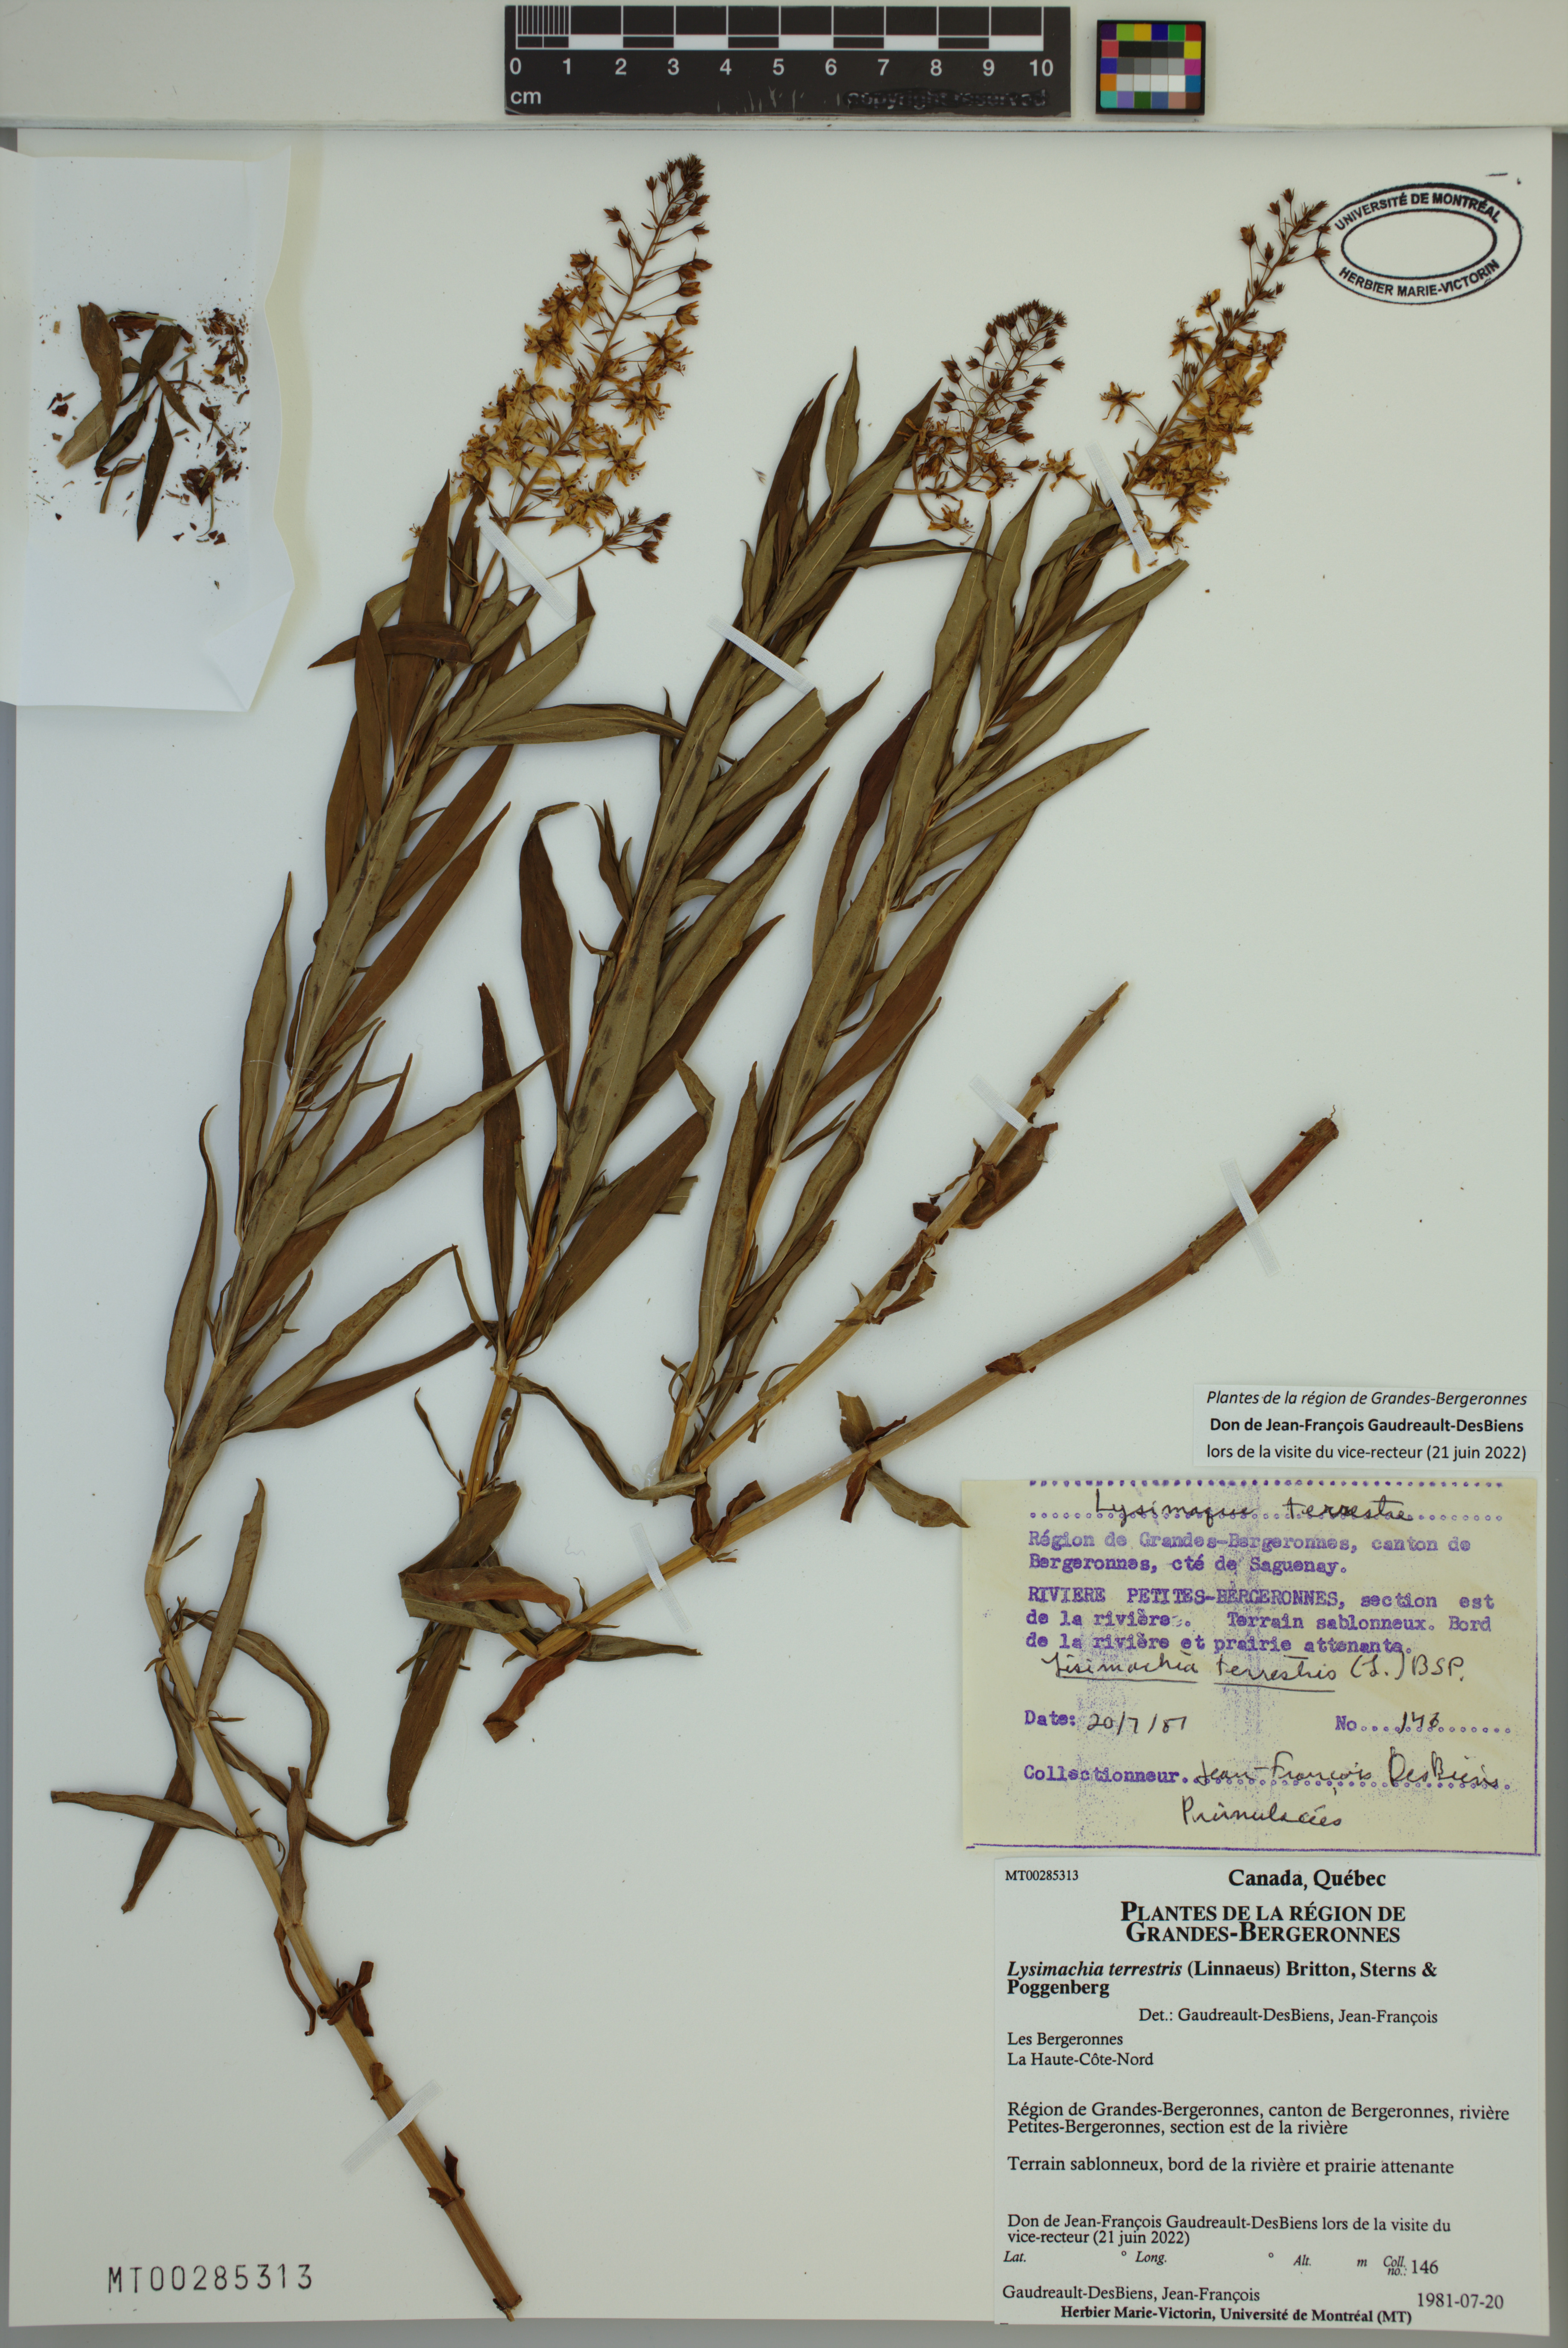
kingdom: Plantae
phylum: Tracheophyta
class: Magnoliopsida
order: Ericales
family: Primulaceae
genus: Lysimachia
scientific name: Lysimachia terrestris
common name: Lake loosestrife
